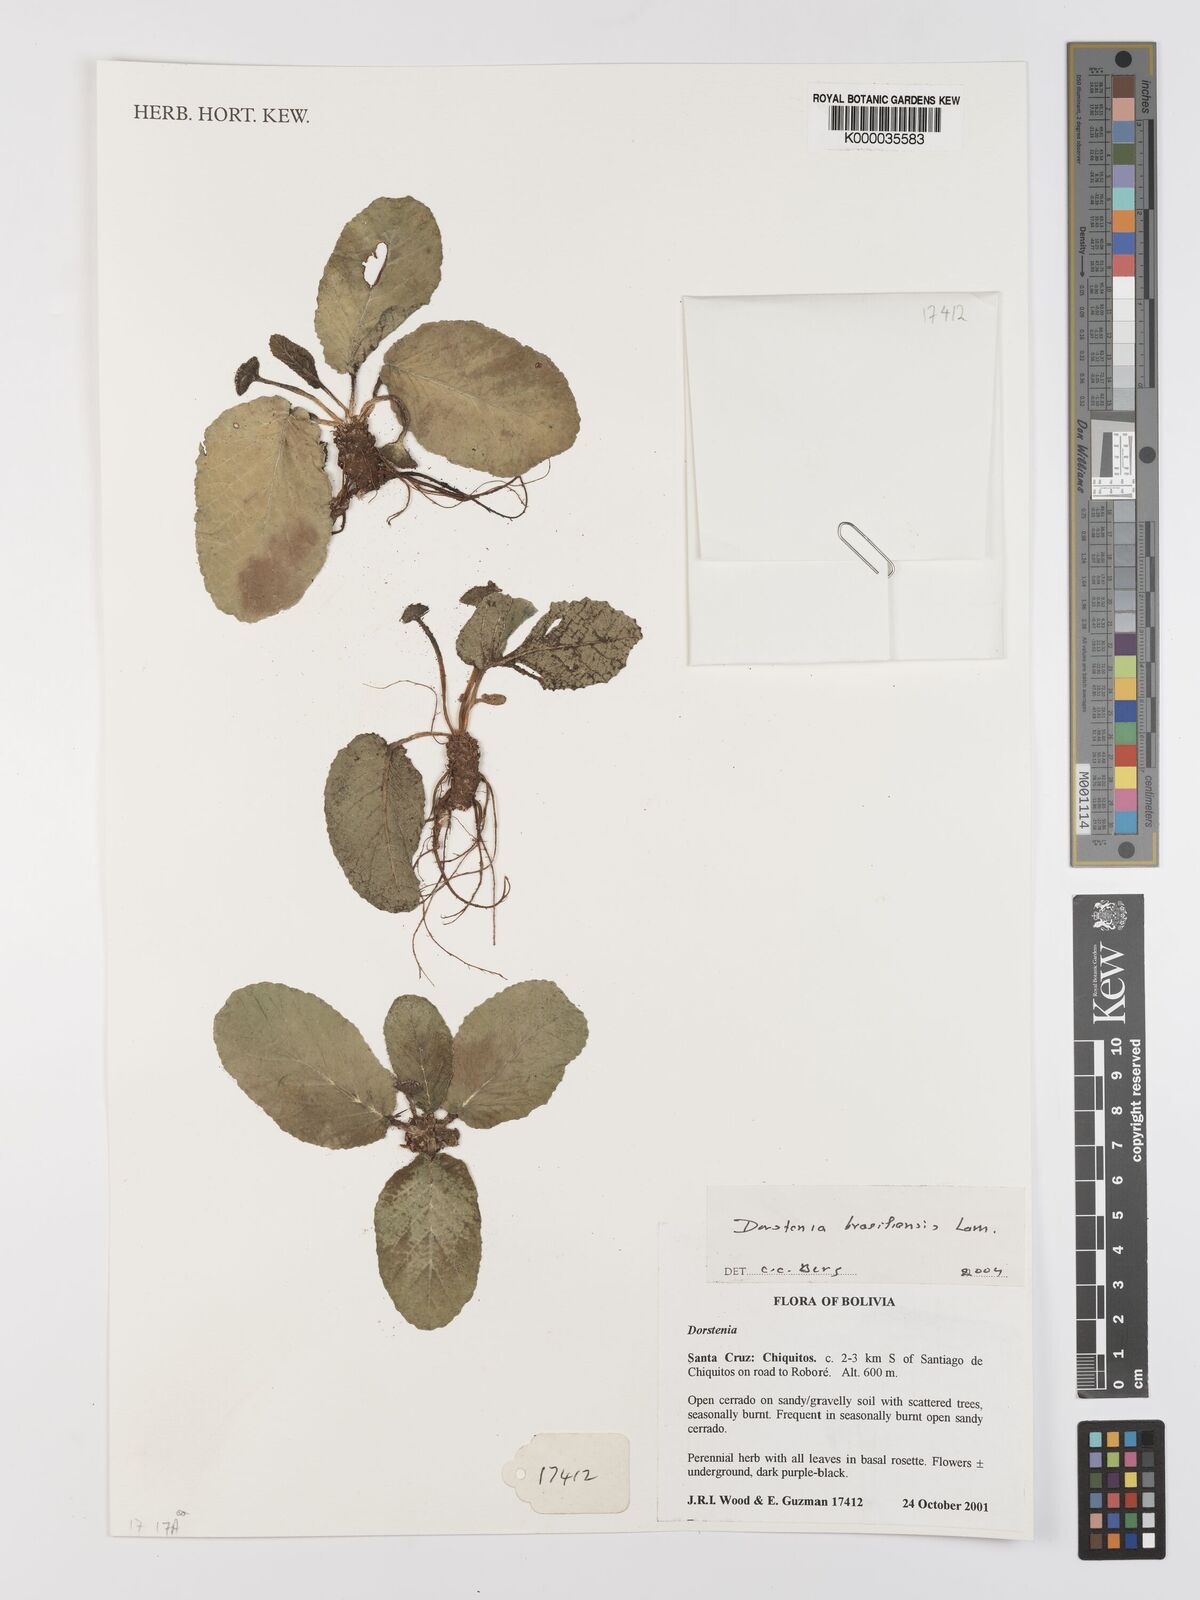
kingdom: Plantae
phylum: Tracheophyta
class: Magnoliopsida
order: Rosales
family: Moraceae
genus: Dorstenia
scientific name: Dorstenia brasiliensis
